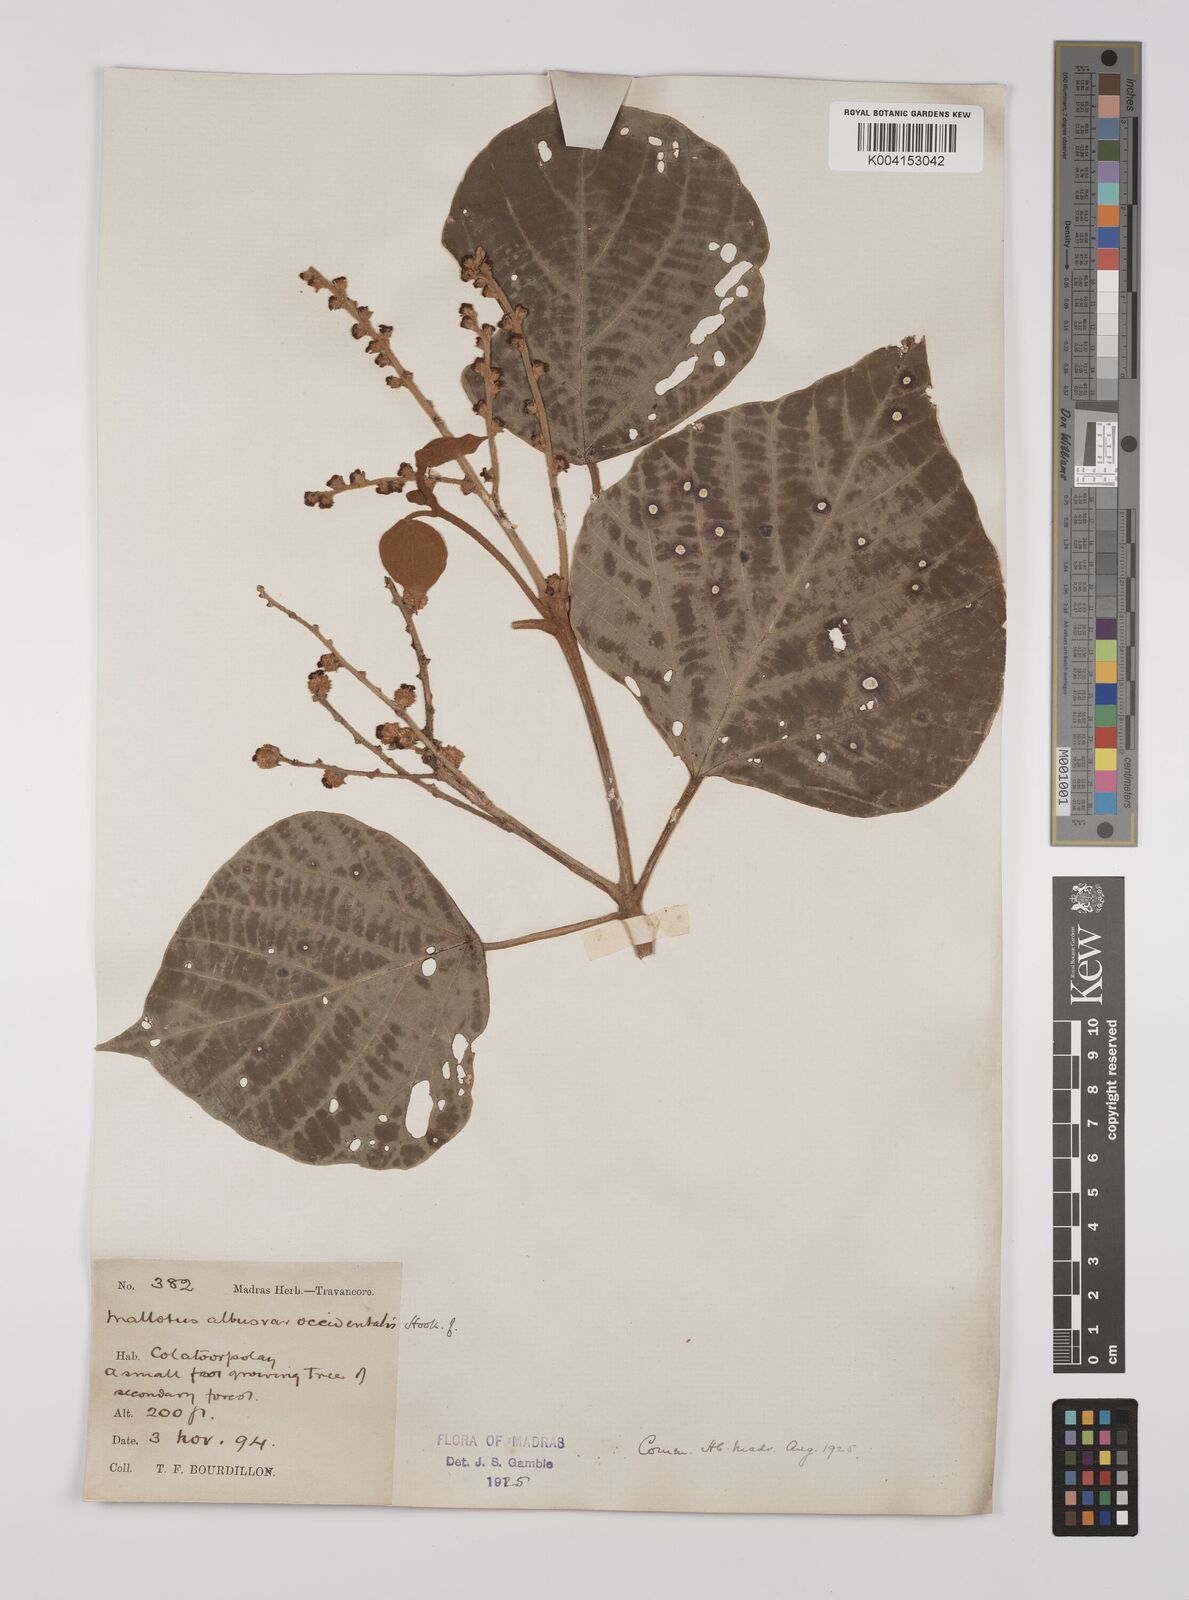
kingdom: Plantae
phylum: Tracheophyta
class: Magnoliopsida
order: Malpighiales
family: Euphorbiaceae
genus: Mallotus
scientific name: Mallotus paniculatus
